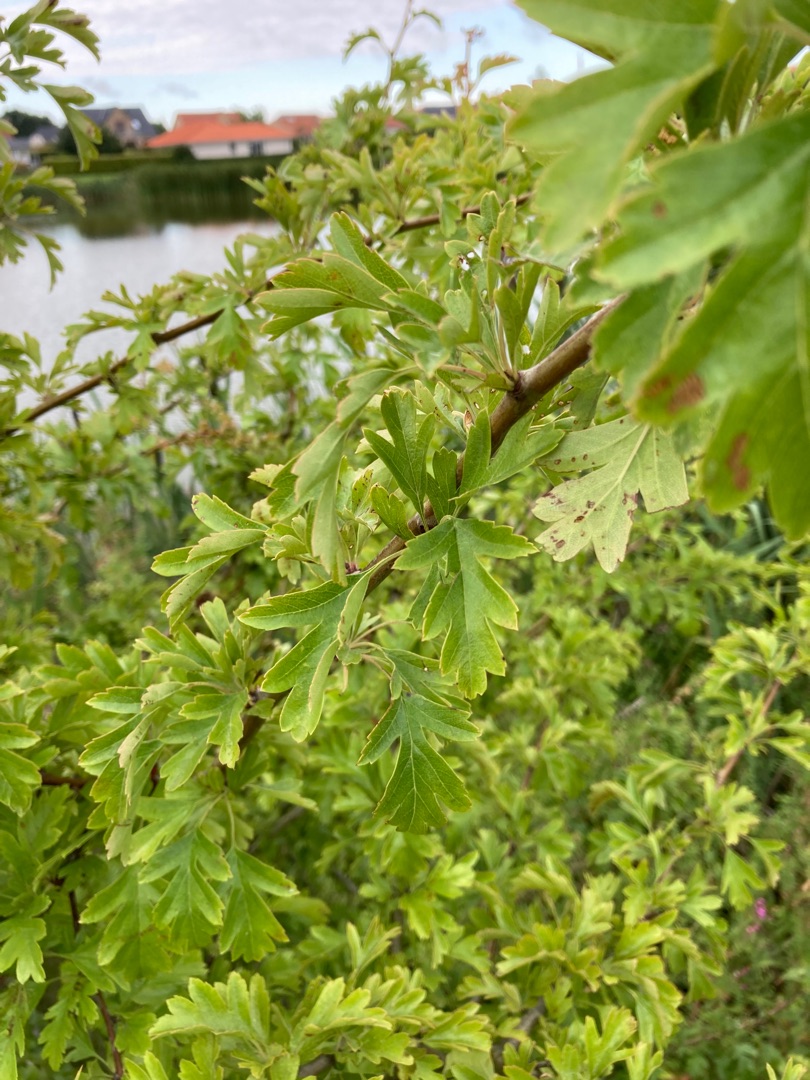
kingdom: Plantae
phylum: Tracheophyta
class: Magnoliopsida
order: Rosales
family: Rosaceae
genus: Crataegus
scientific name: Crataegus monogyna
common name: Engriflet hvidtjørn
